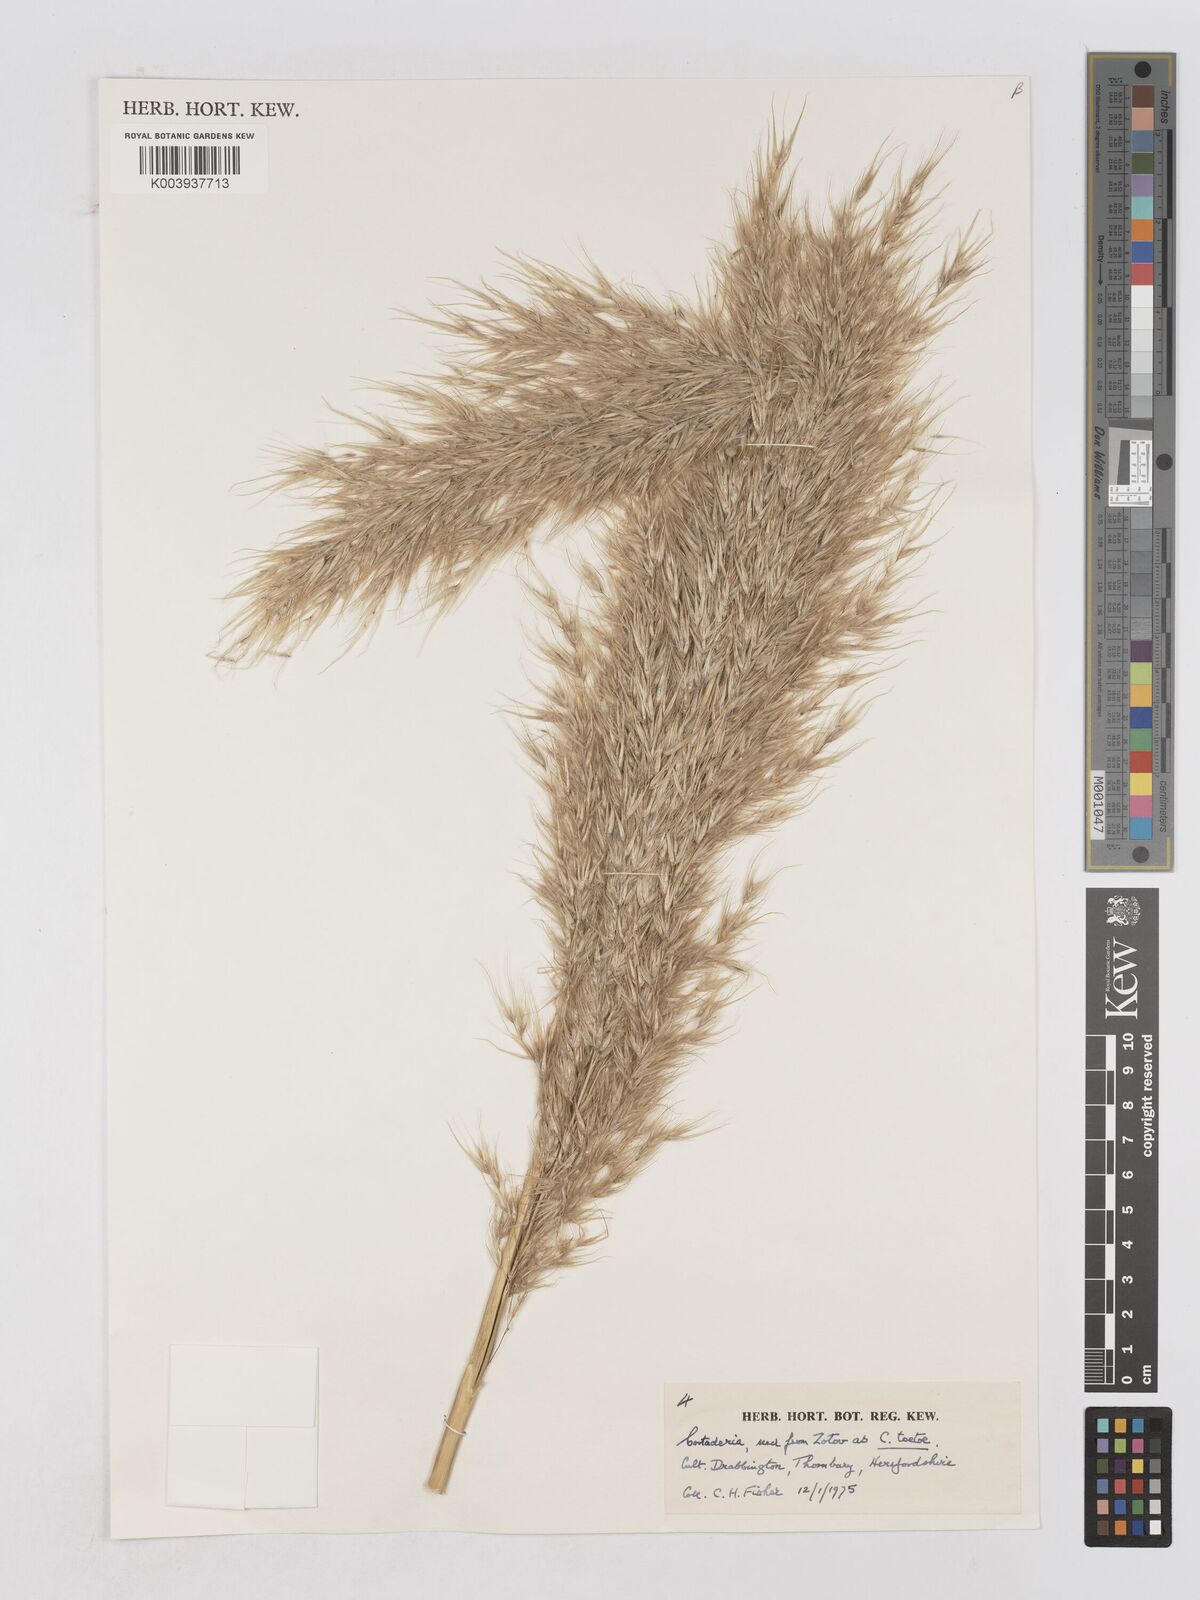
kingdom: Plantae
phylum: Tracheophyta
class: Liliopsida
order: Poales
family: Poaceae
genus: Austroderia
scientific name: Austroderia toetoe
